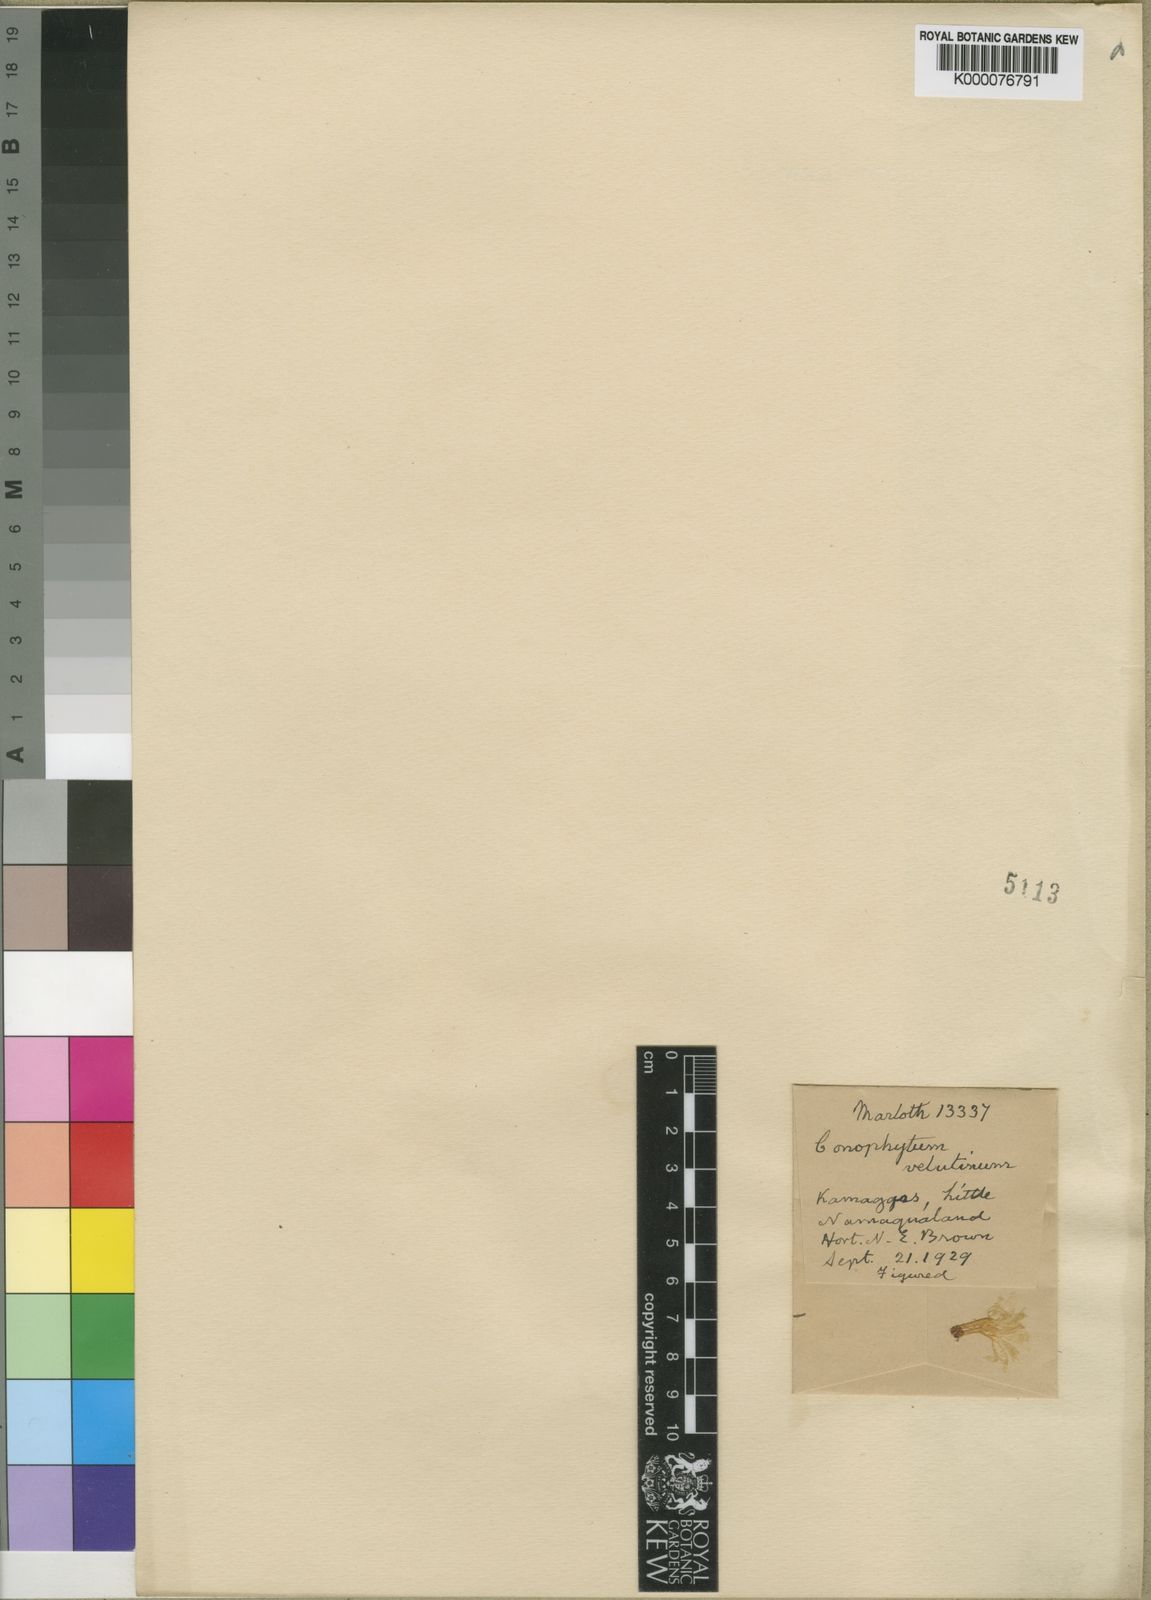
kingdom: Plantae
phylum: Tracheophyta
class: Magnoliopsida
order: Caryophyllales
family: Aizoaceae
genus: Conophytum
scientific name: Conophytum velutinum
